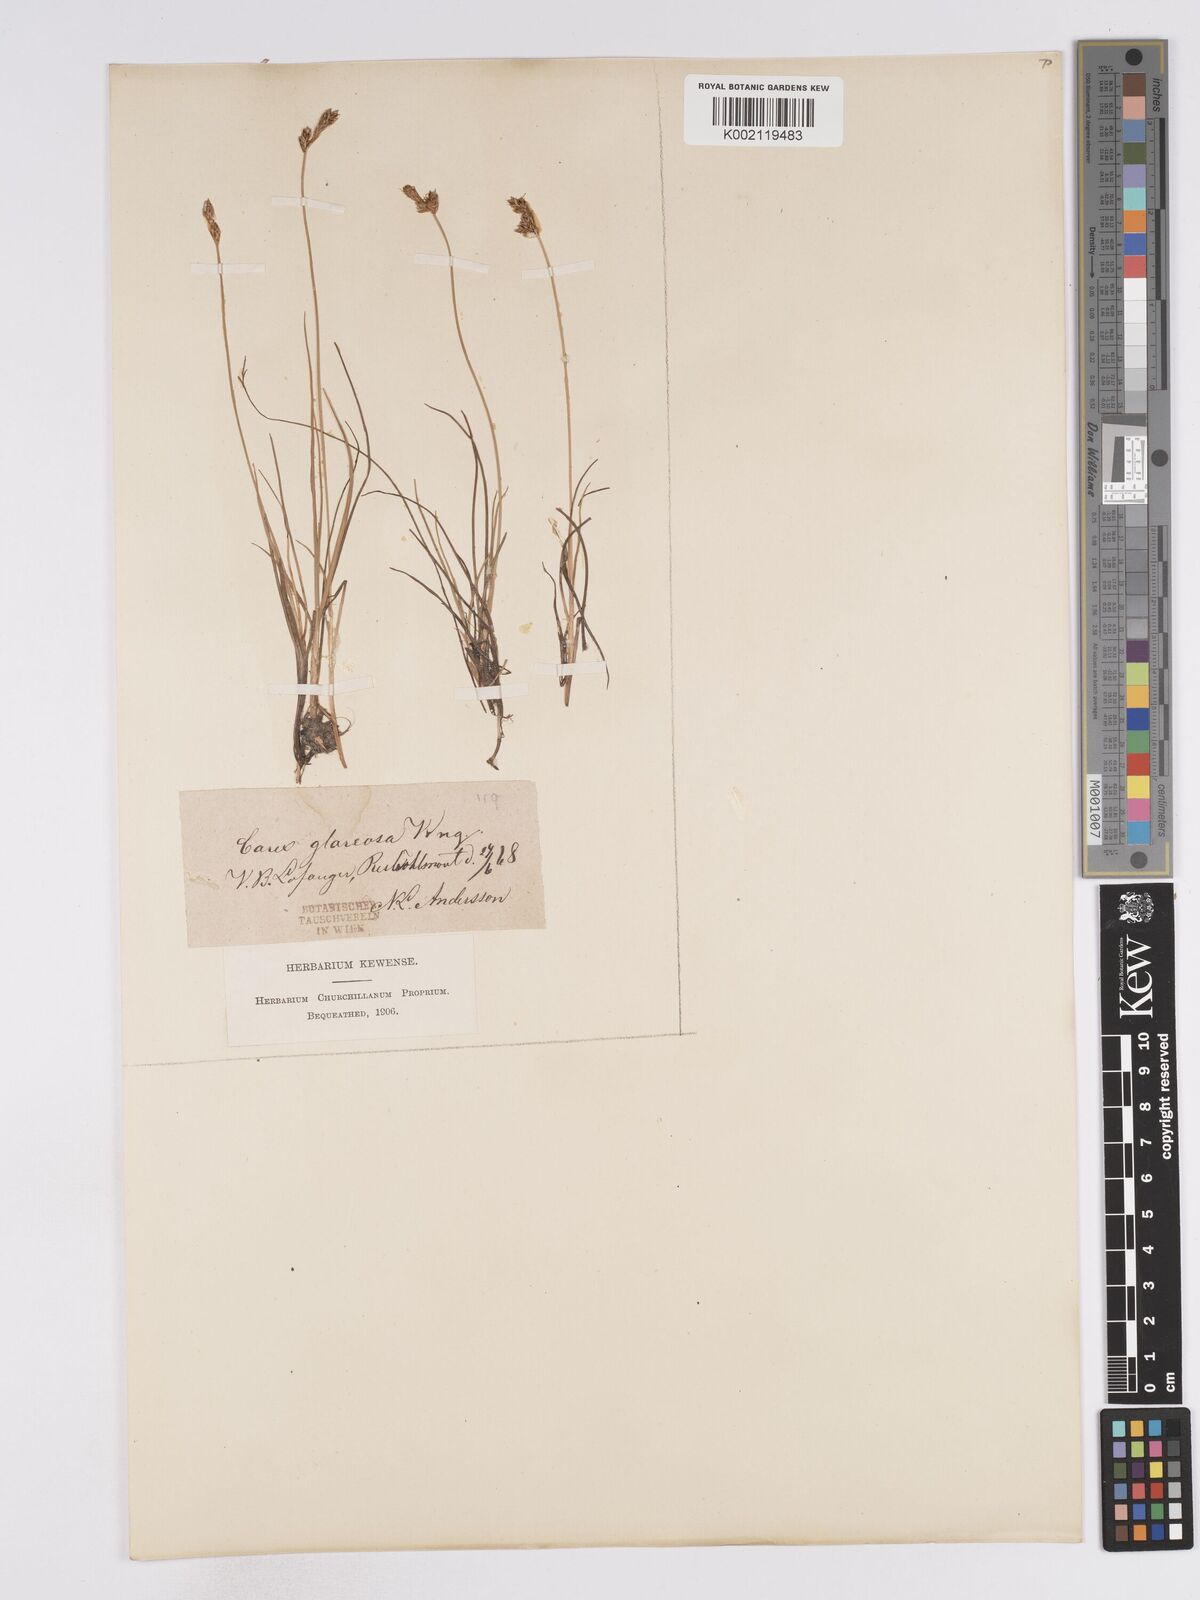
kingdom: Plantae
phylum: Tracheophyta
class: Liliopsida
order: Poales
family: Cyperaceae
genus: Carex
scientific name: Carex glareosa
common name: Clustered sedge
